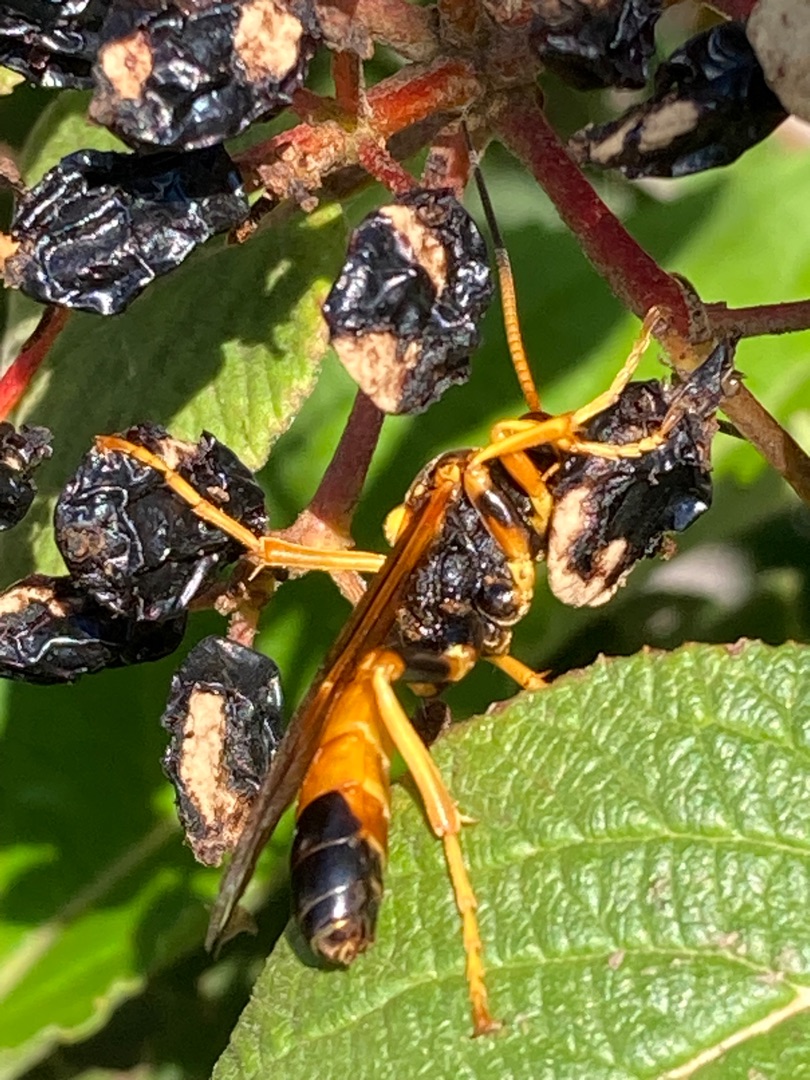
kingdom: Animalia
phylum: Arthropoda
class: Insecta
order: Hymenoptera
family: Ichneumonidae
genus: Callajoppa
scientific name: Callajoppa exaltatoria
